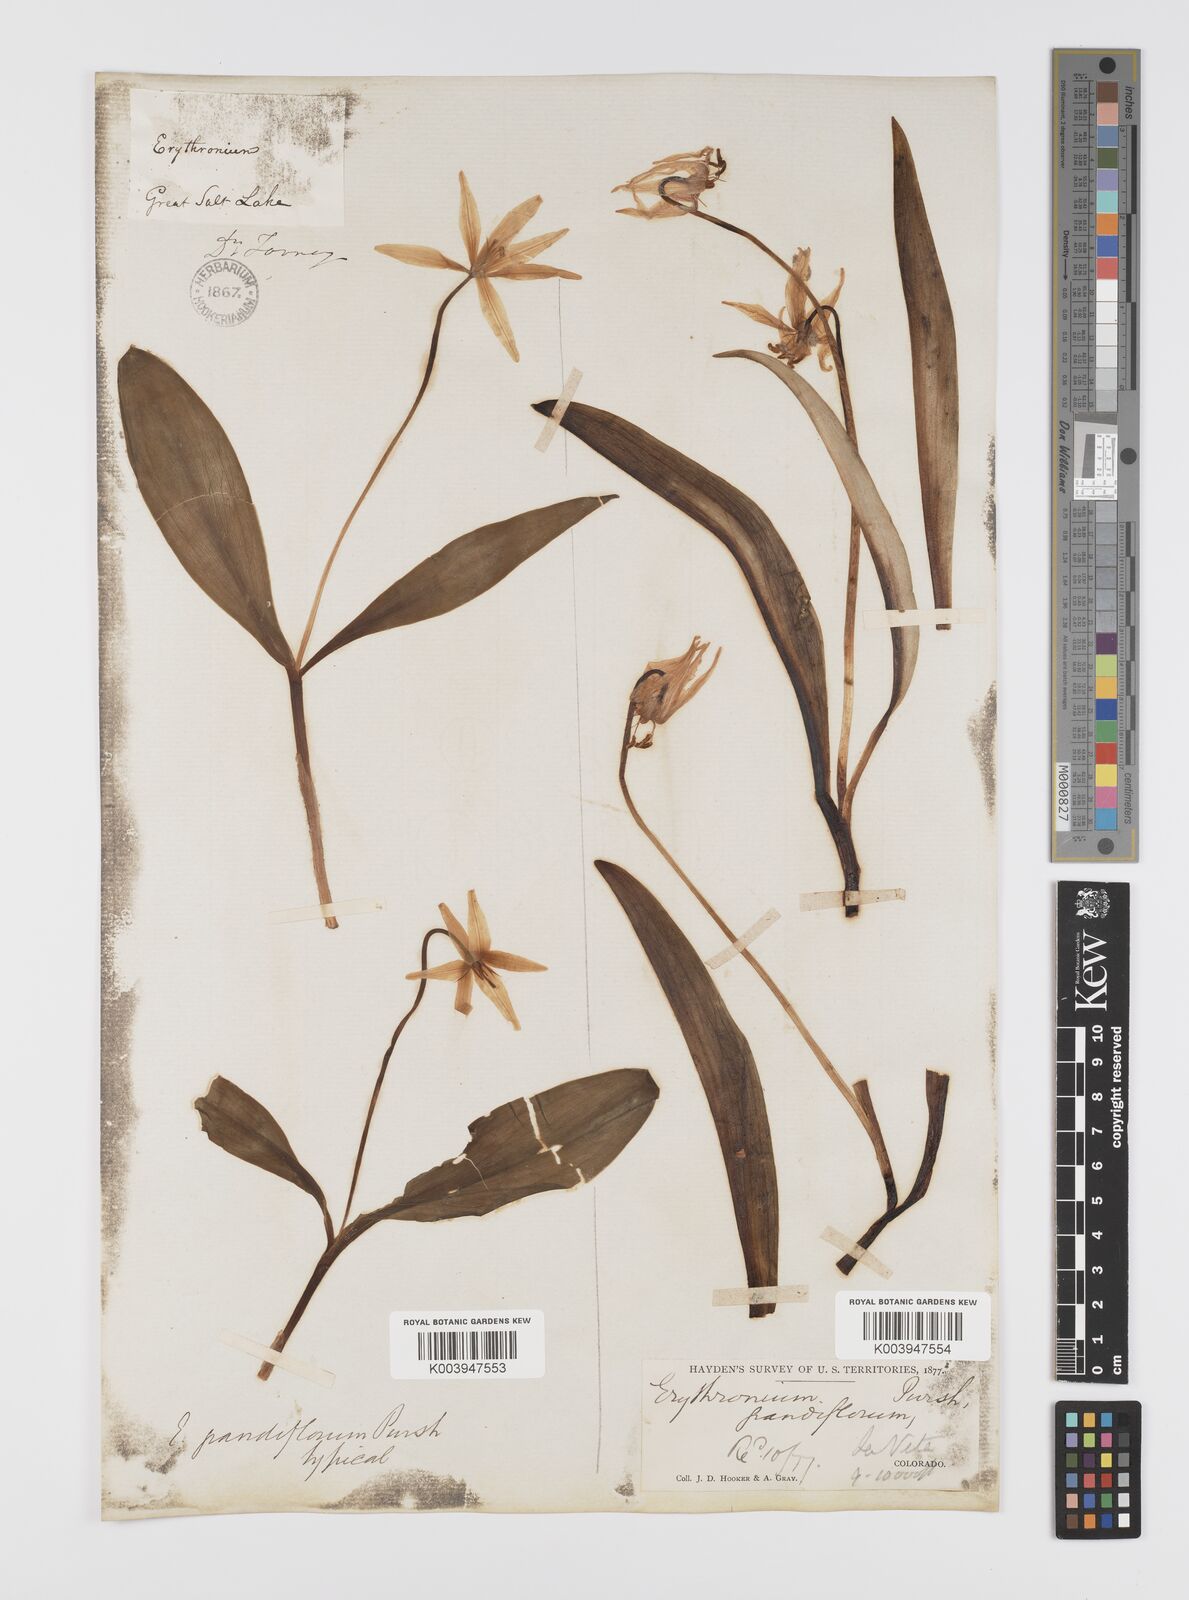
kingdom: Plantae
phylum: Tracheophyta
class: Liliopsida
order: Liliales
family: Liliaceae
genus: Erythronium
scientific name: Erythronium grandiflorum
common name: Avalanche-lily
